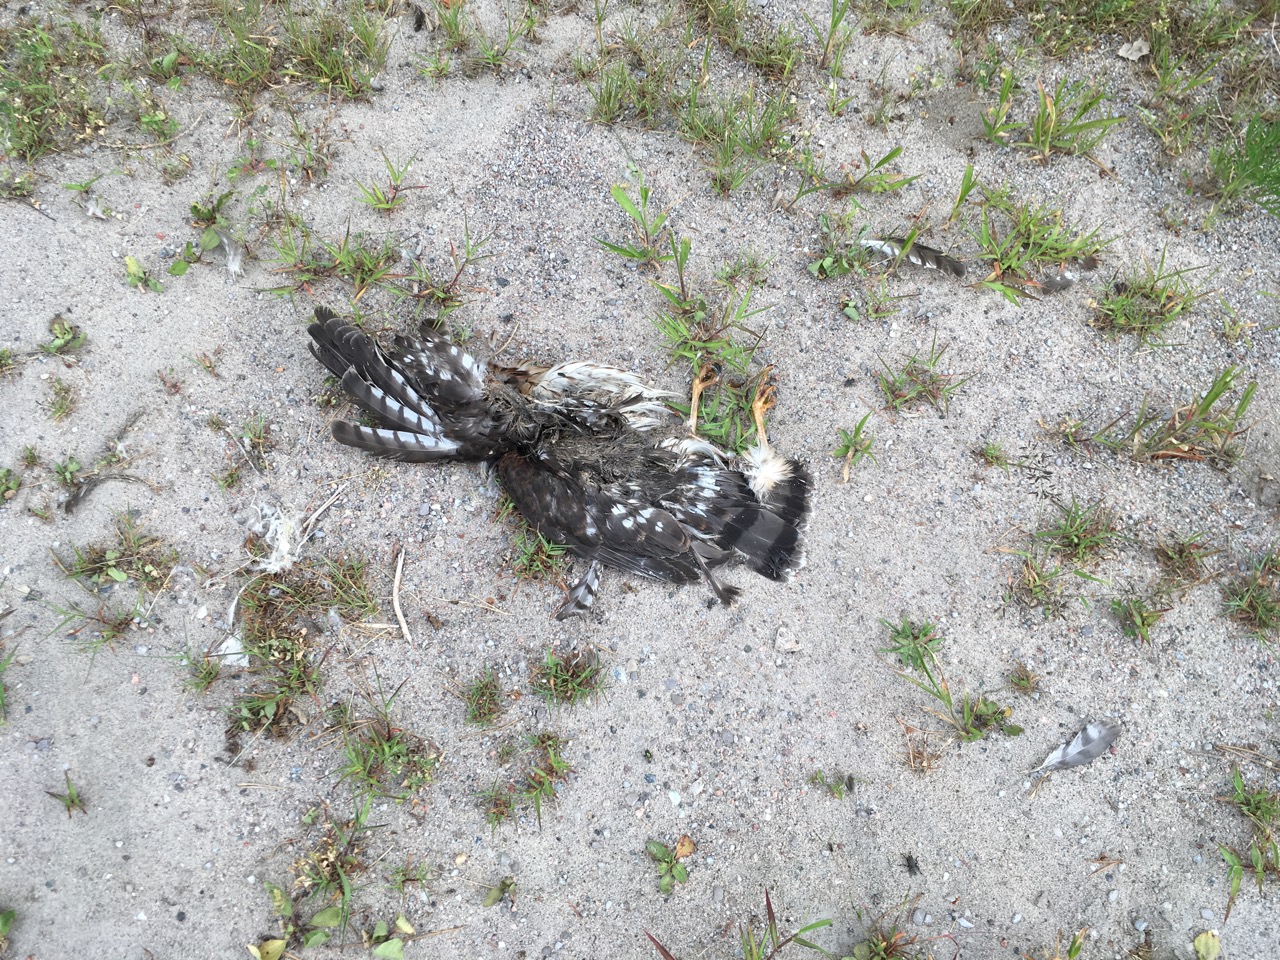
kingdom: Animalia
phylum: Chordata
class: Aves
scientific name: Aves
